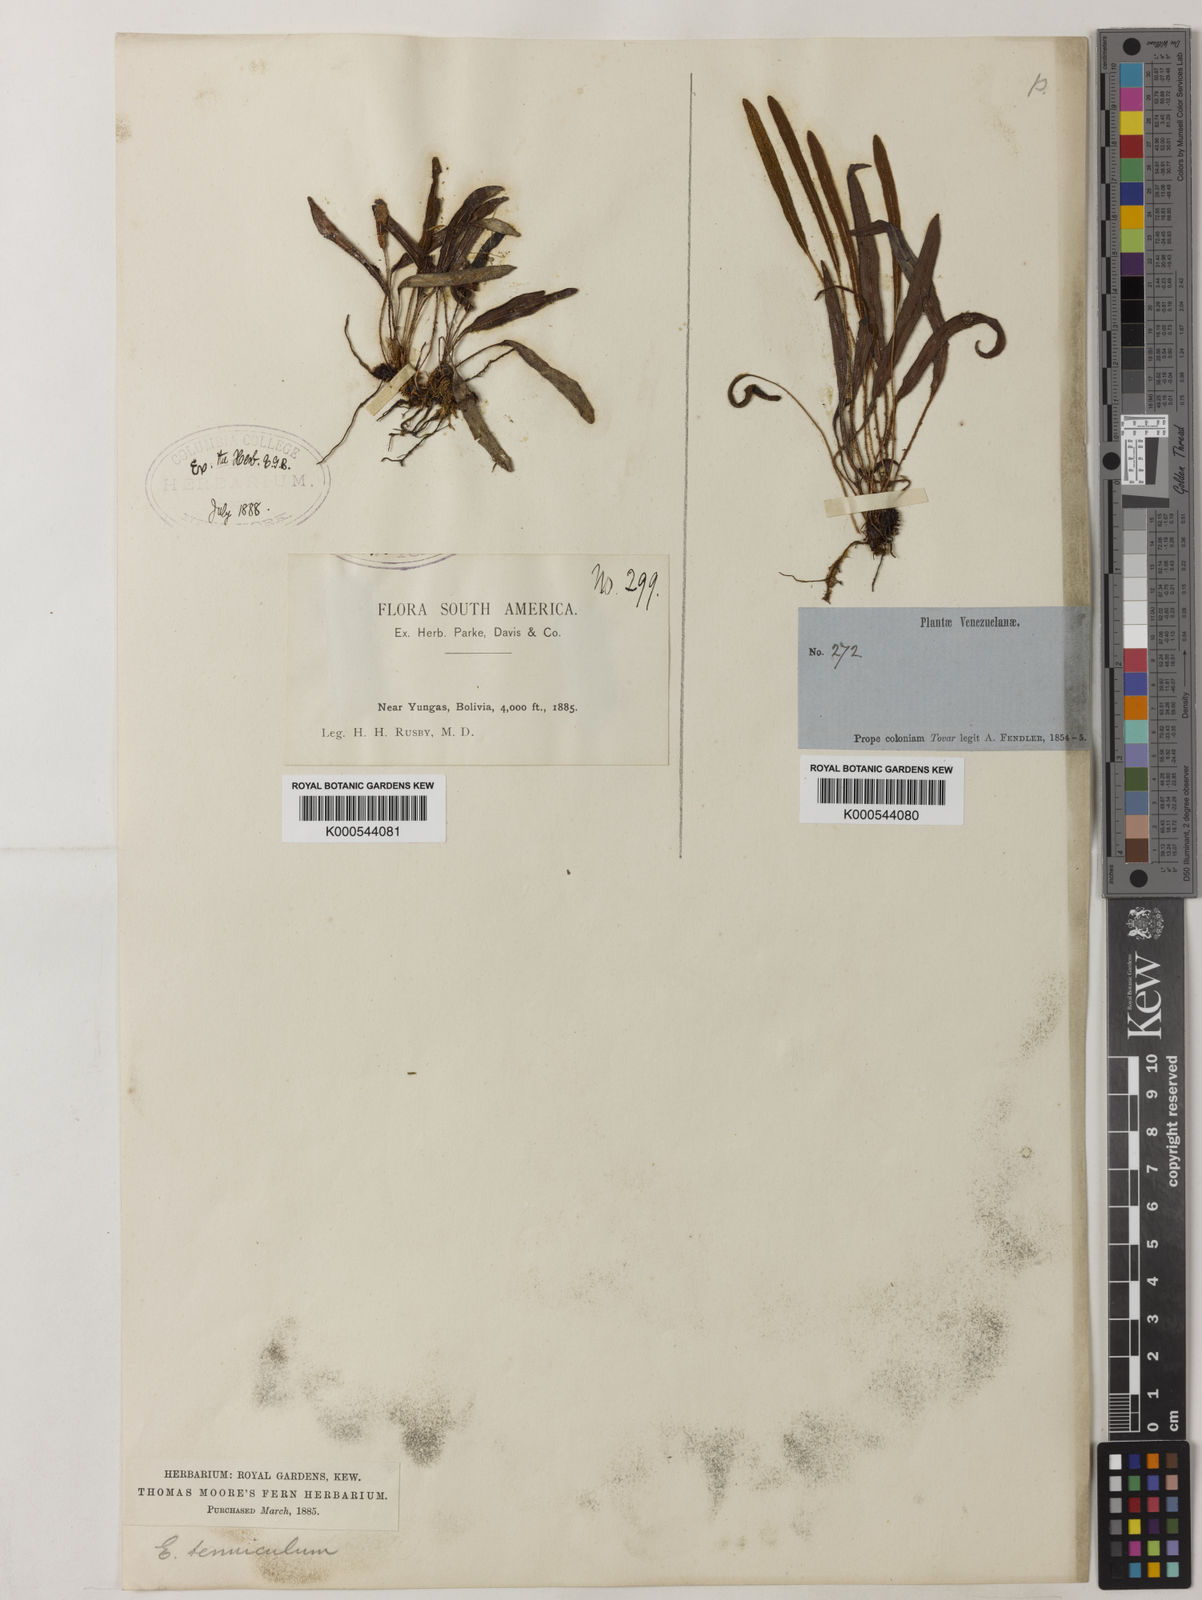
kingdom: Plantae
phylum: Tracheophyta
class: Polypodiopsida
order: Polypodiales
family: Dryopteridaceae
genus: Elaphoglossum
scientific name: Elaphoglossum
